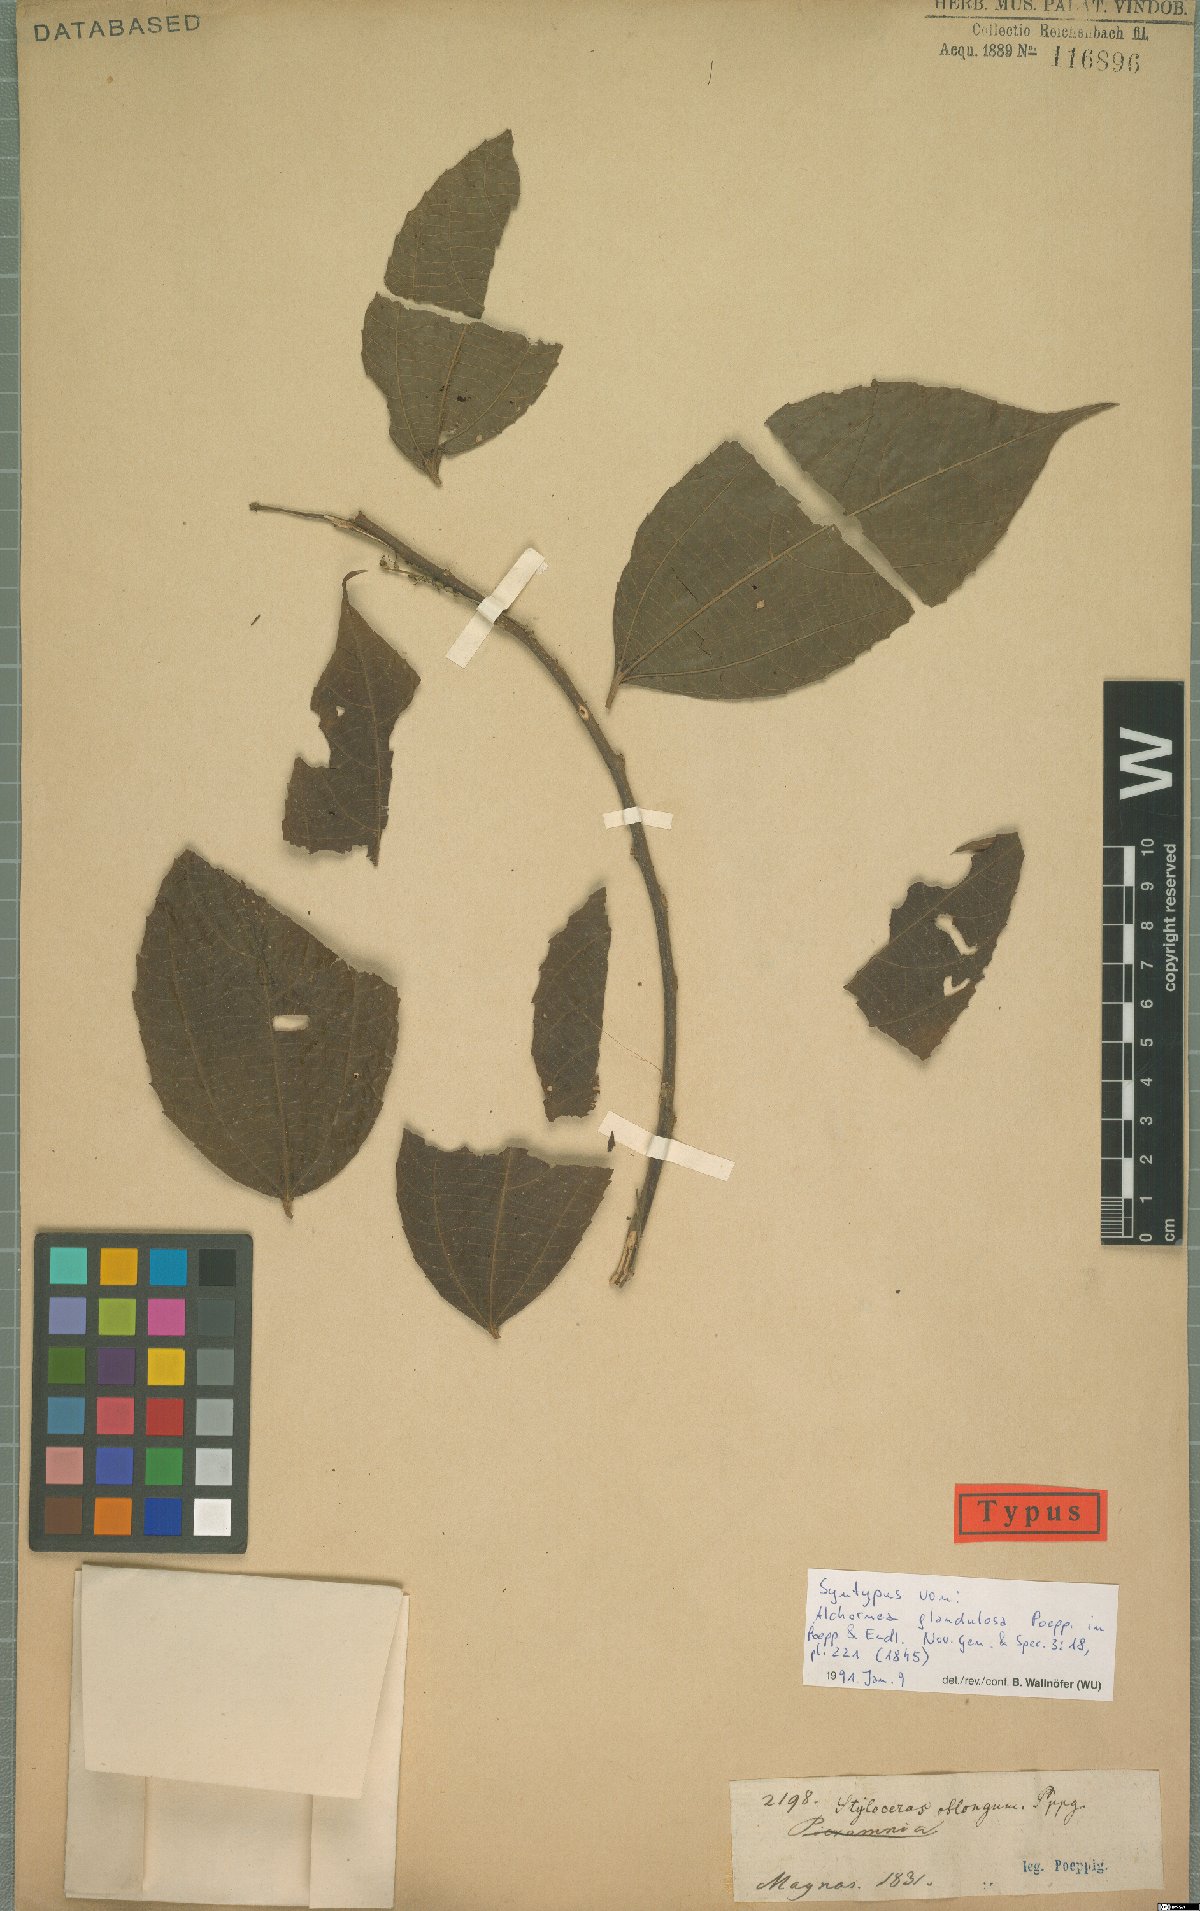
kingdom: Plantae
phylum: Tracheophyta
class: Magnoliopsida
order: Malpighiales
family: Euphorbiaceae
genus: Alchornea
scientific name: Alchornea glandulosa
